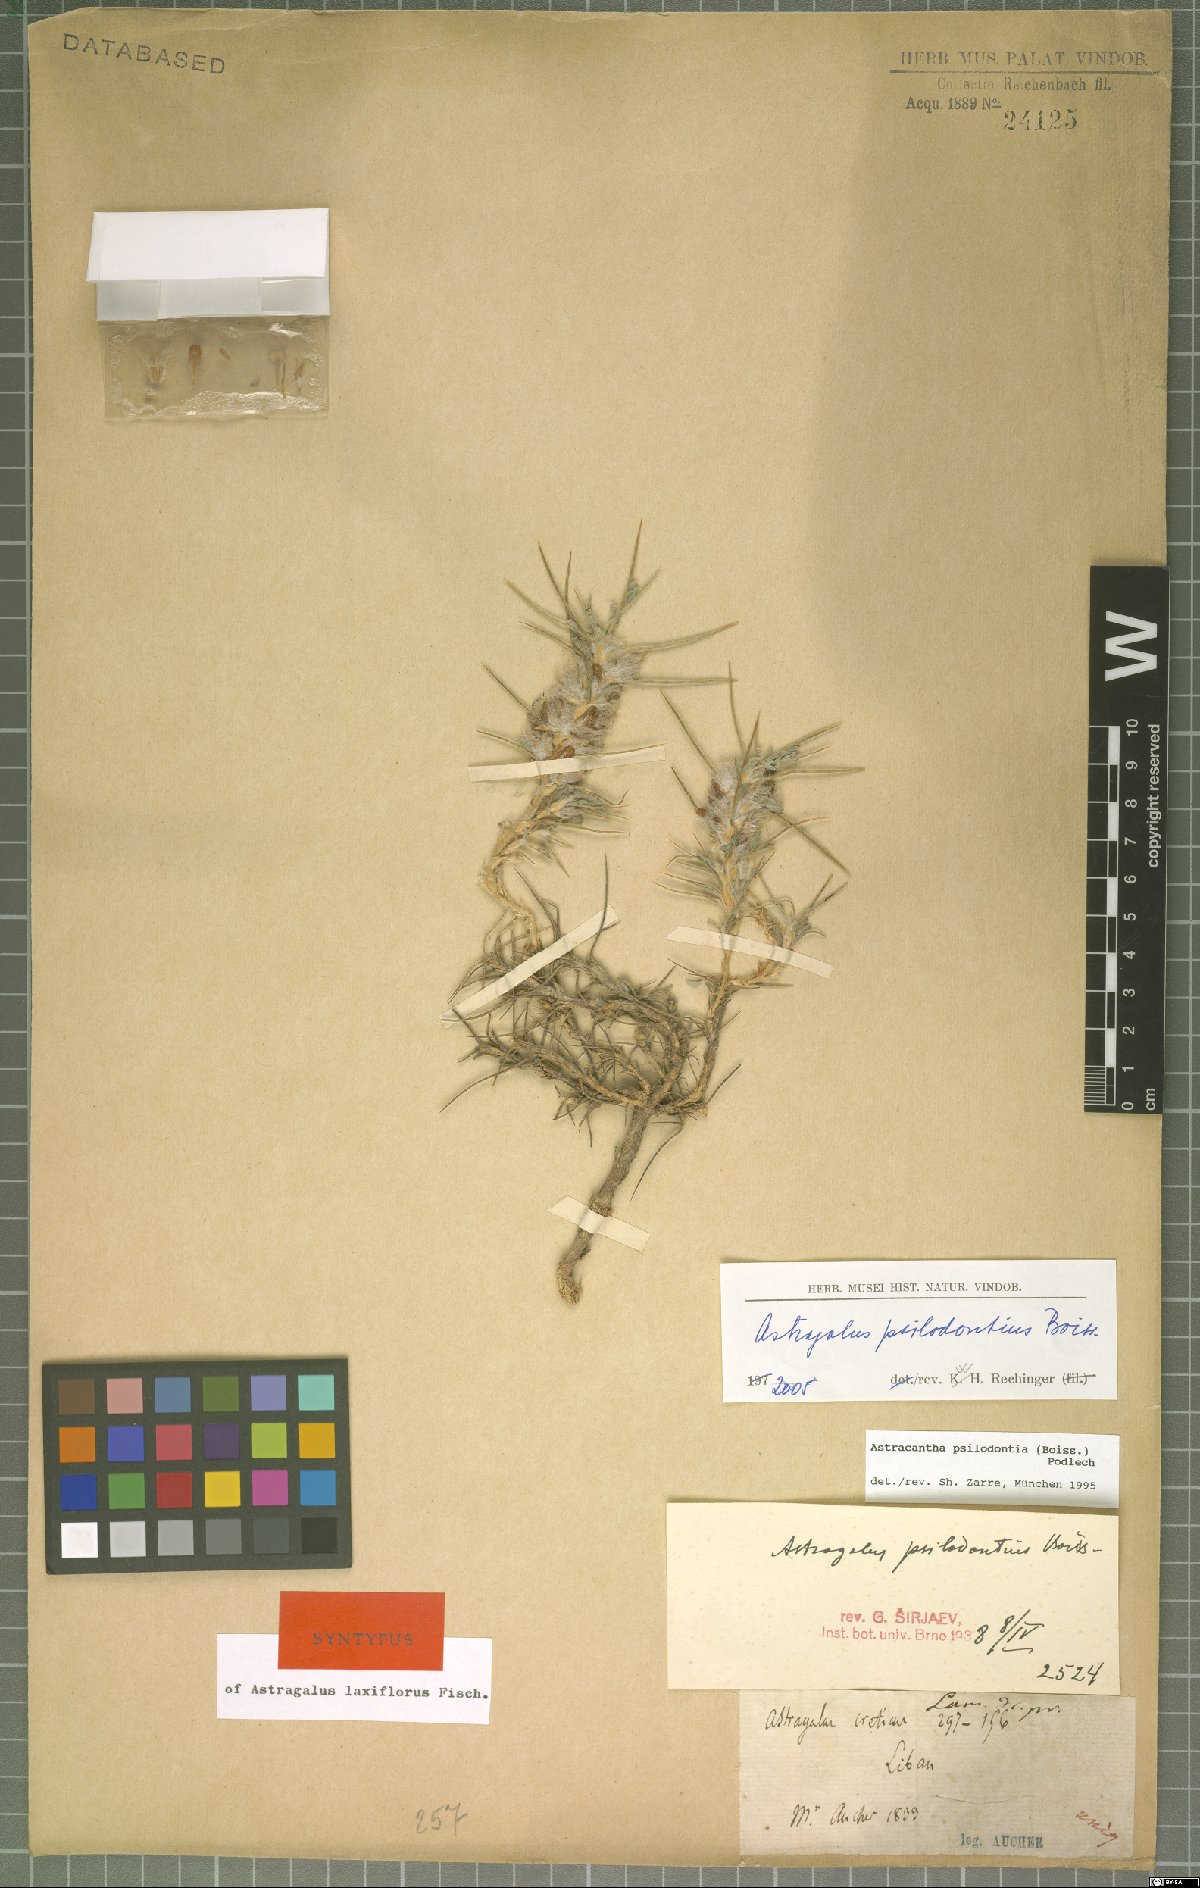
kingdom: Plantae
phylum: Tracheophyta
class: Magnoliopsida
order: Fabales
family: Fabaceae
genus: Astragalus
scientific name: Astragalus psilodontius
